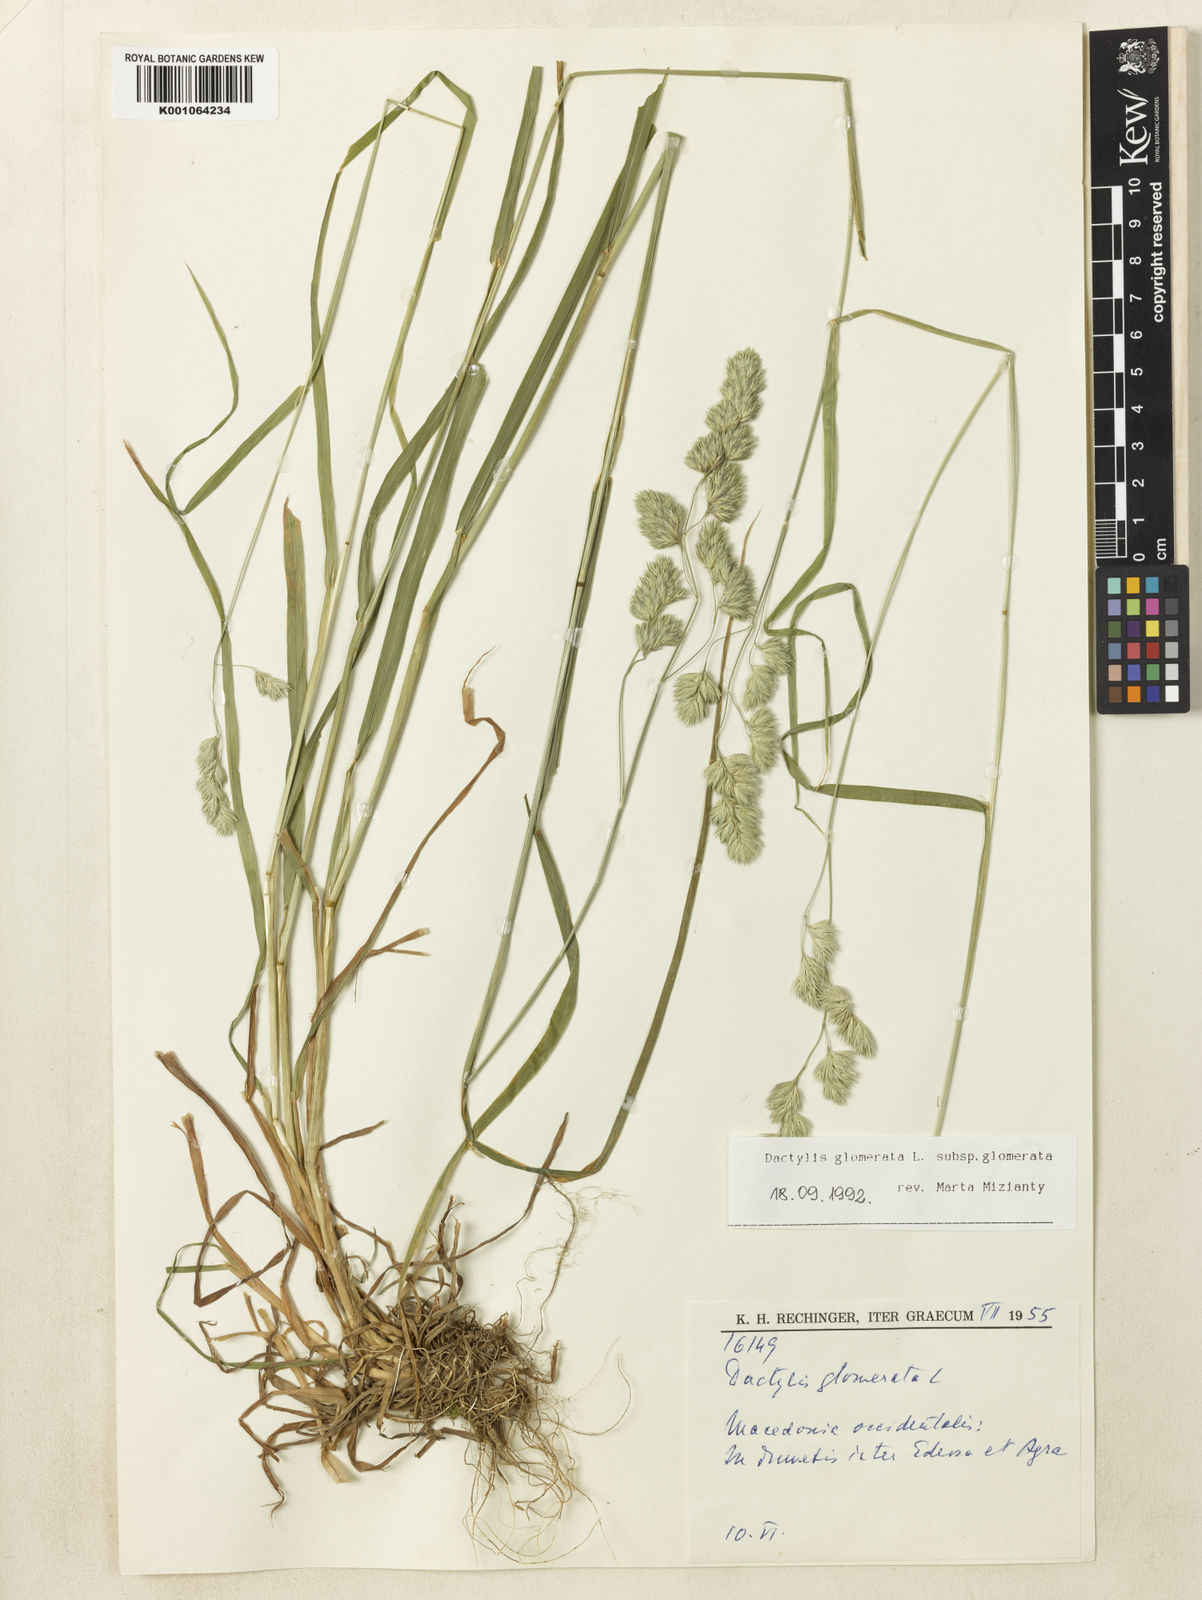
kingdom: Plantae
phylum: Tracheophyta
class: Liliopsida
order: Poales
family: Poaceae
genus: Dactylis
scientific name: Dactylis glomerata
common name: Orchardgrass
